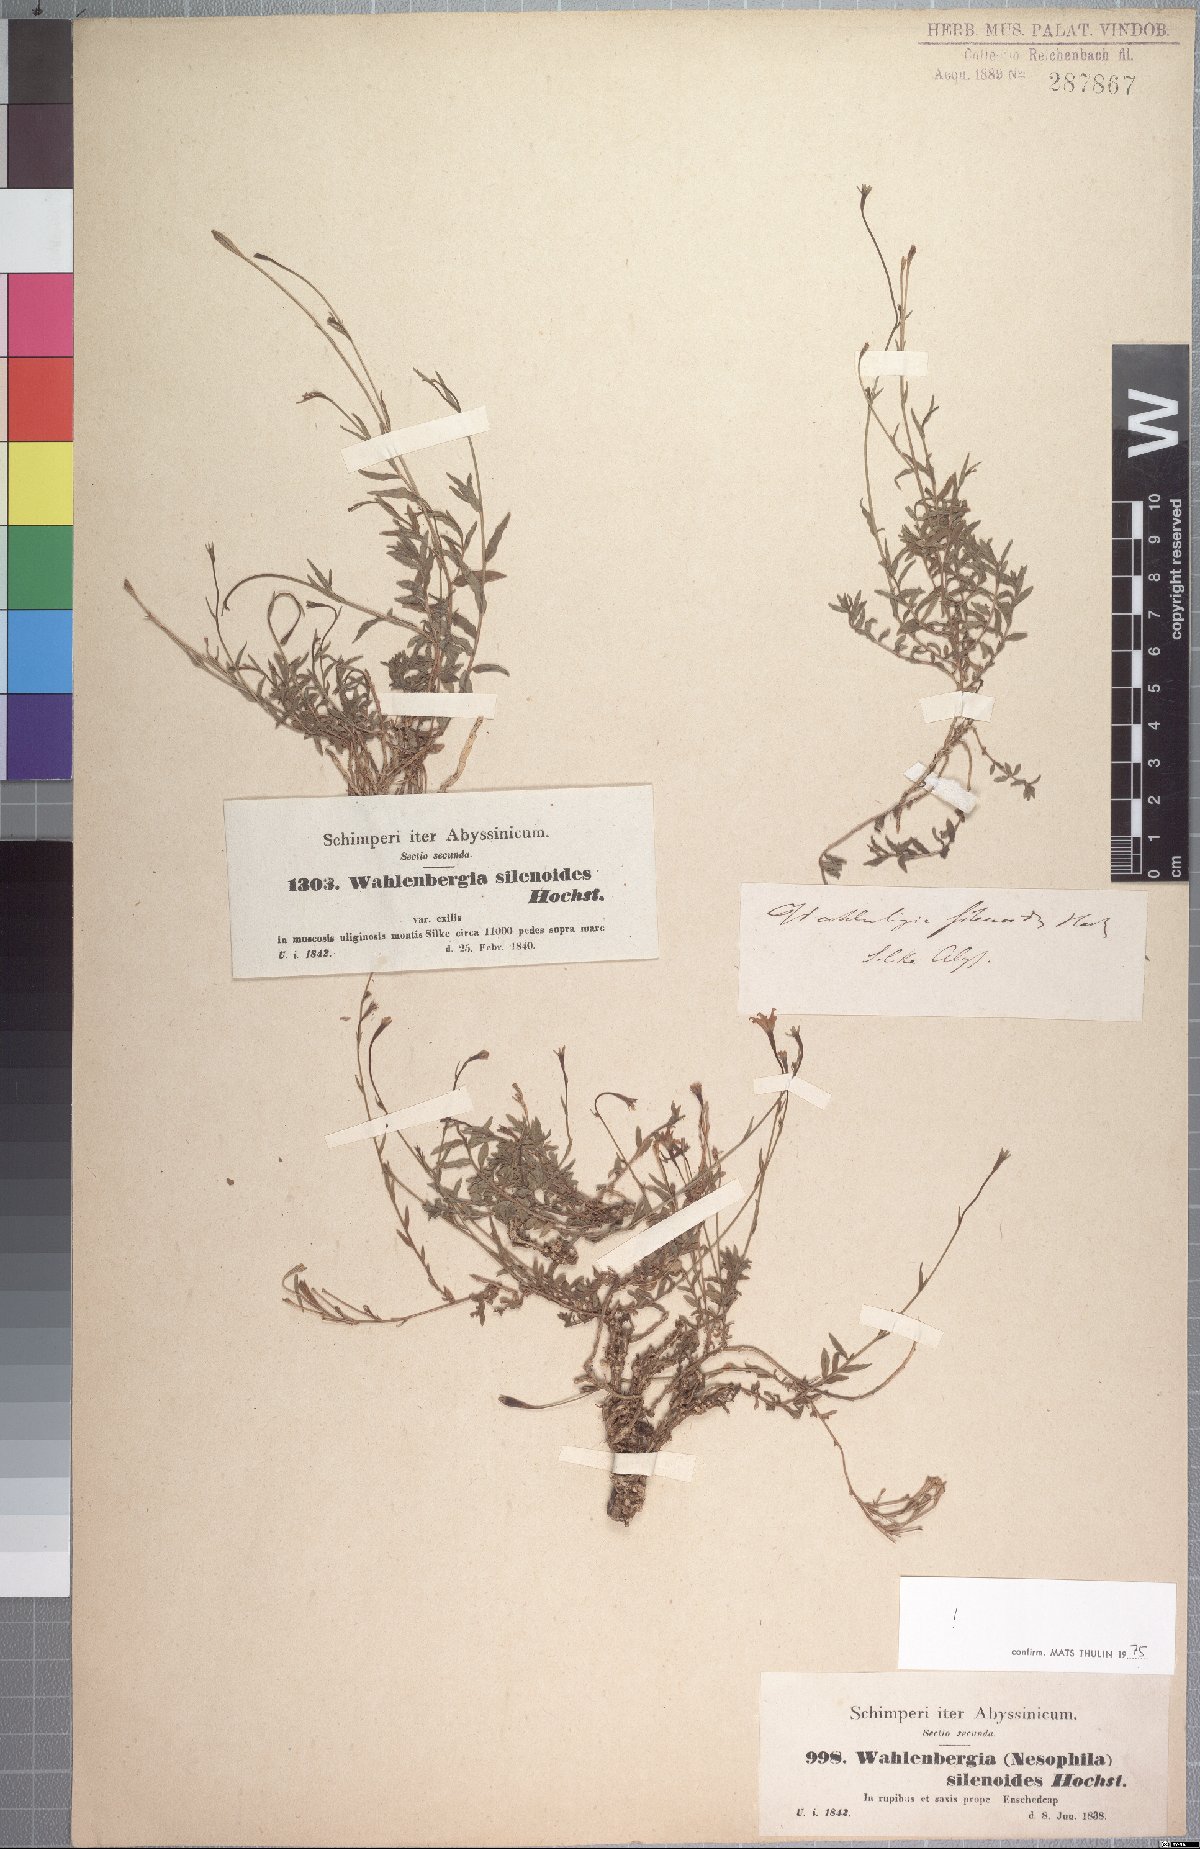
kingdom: Plantae
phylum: Tracheophyta
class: Magnoliopsida
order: Asterales
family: Campanulaceae
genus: Wahlenbergia
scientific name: Wahlenbergia silenoides
